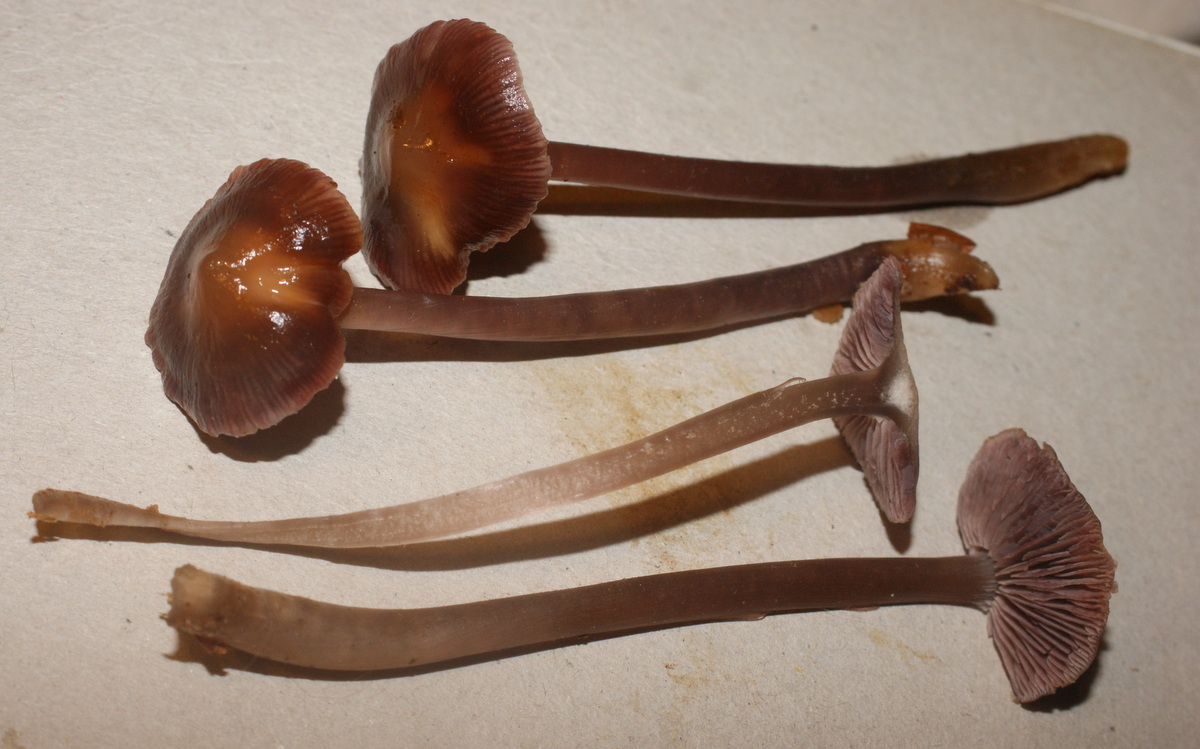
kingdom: Fungi
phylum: Basidiomycota
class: Agaricomycetes
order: Agaricales
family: Mycenaceae
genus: Prunulus
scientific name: Prunulus diosmus
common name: tobaks-huesvamp
